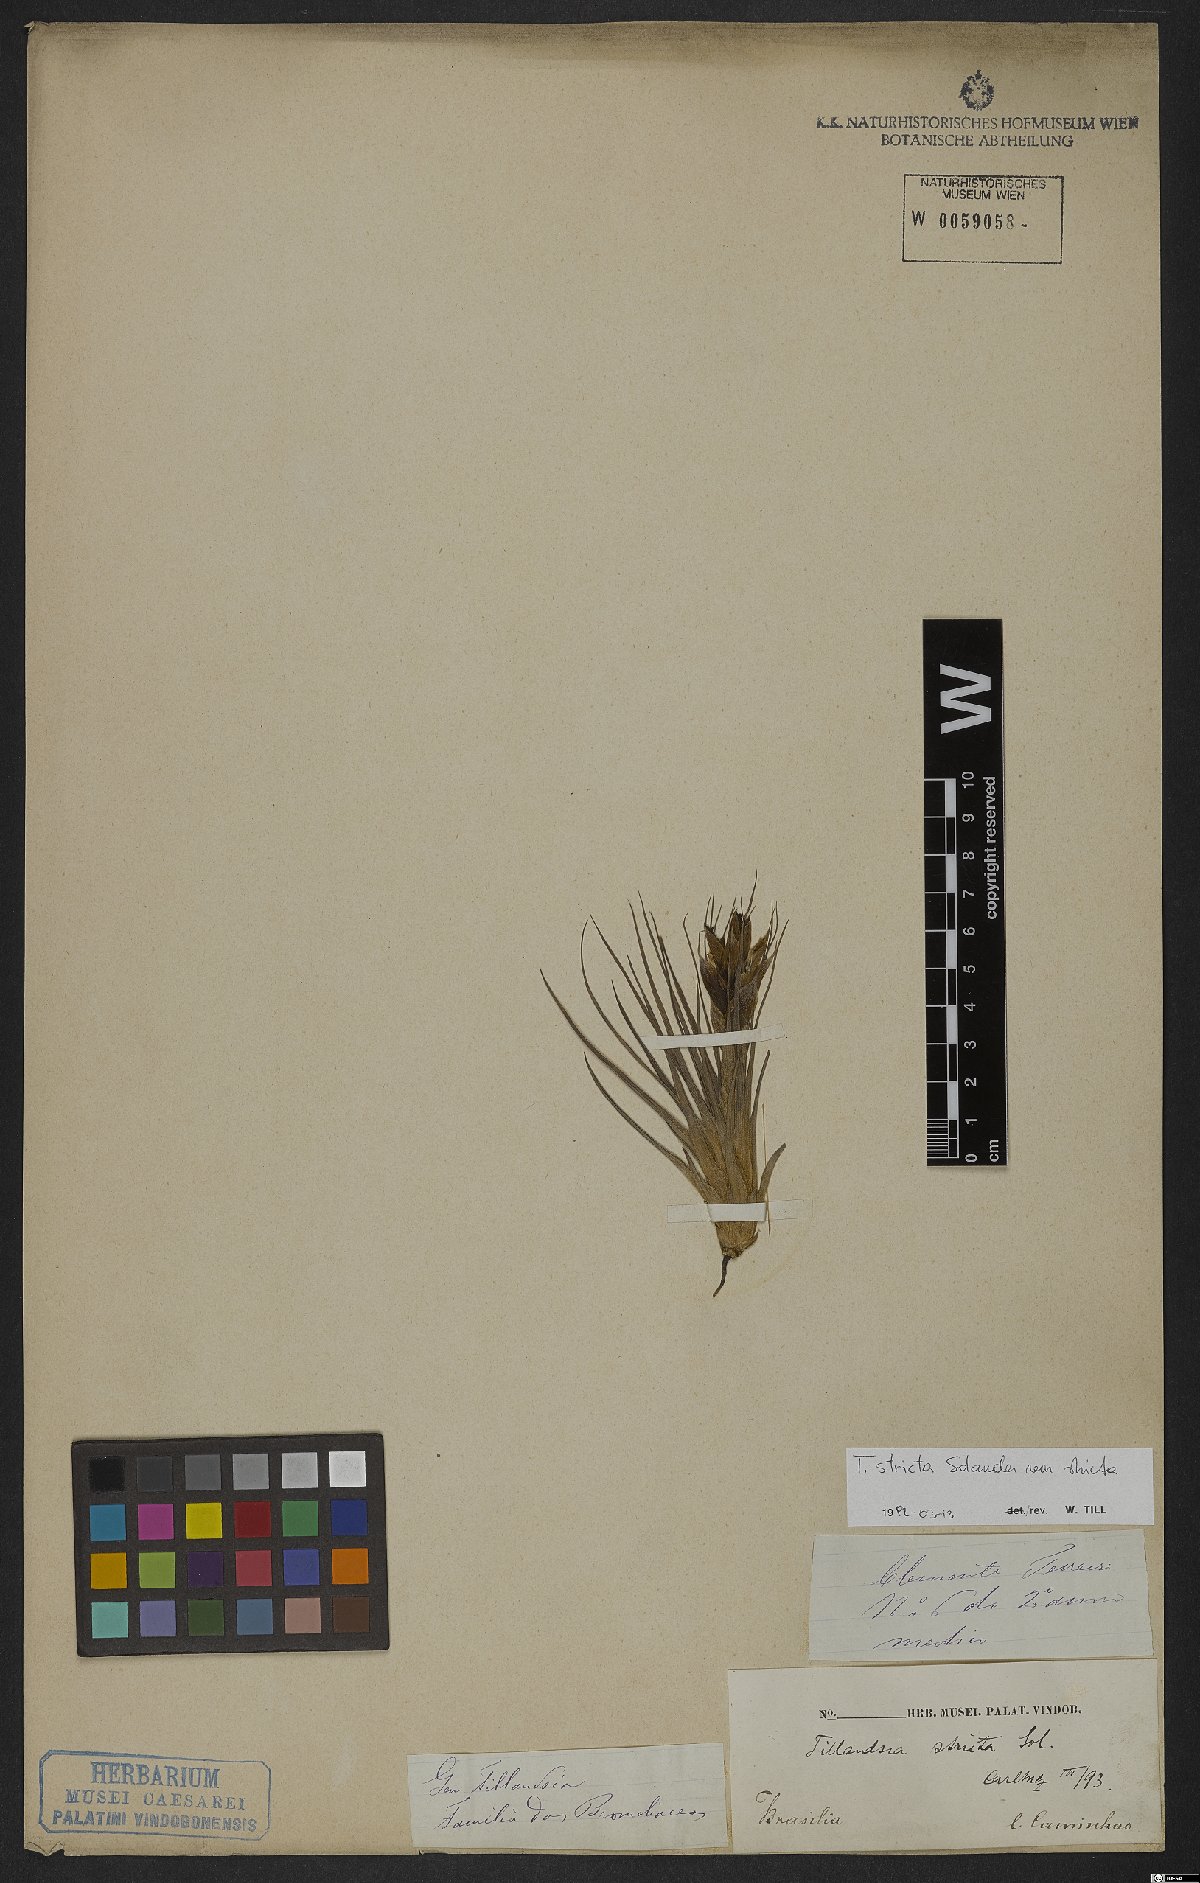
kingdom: Plantae
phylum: Tracheophyta
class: Liliopsida
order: Poales
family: Bromeliaceae
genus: Tillandsia
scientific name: Tillandsia stricta
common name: Airplant
